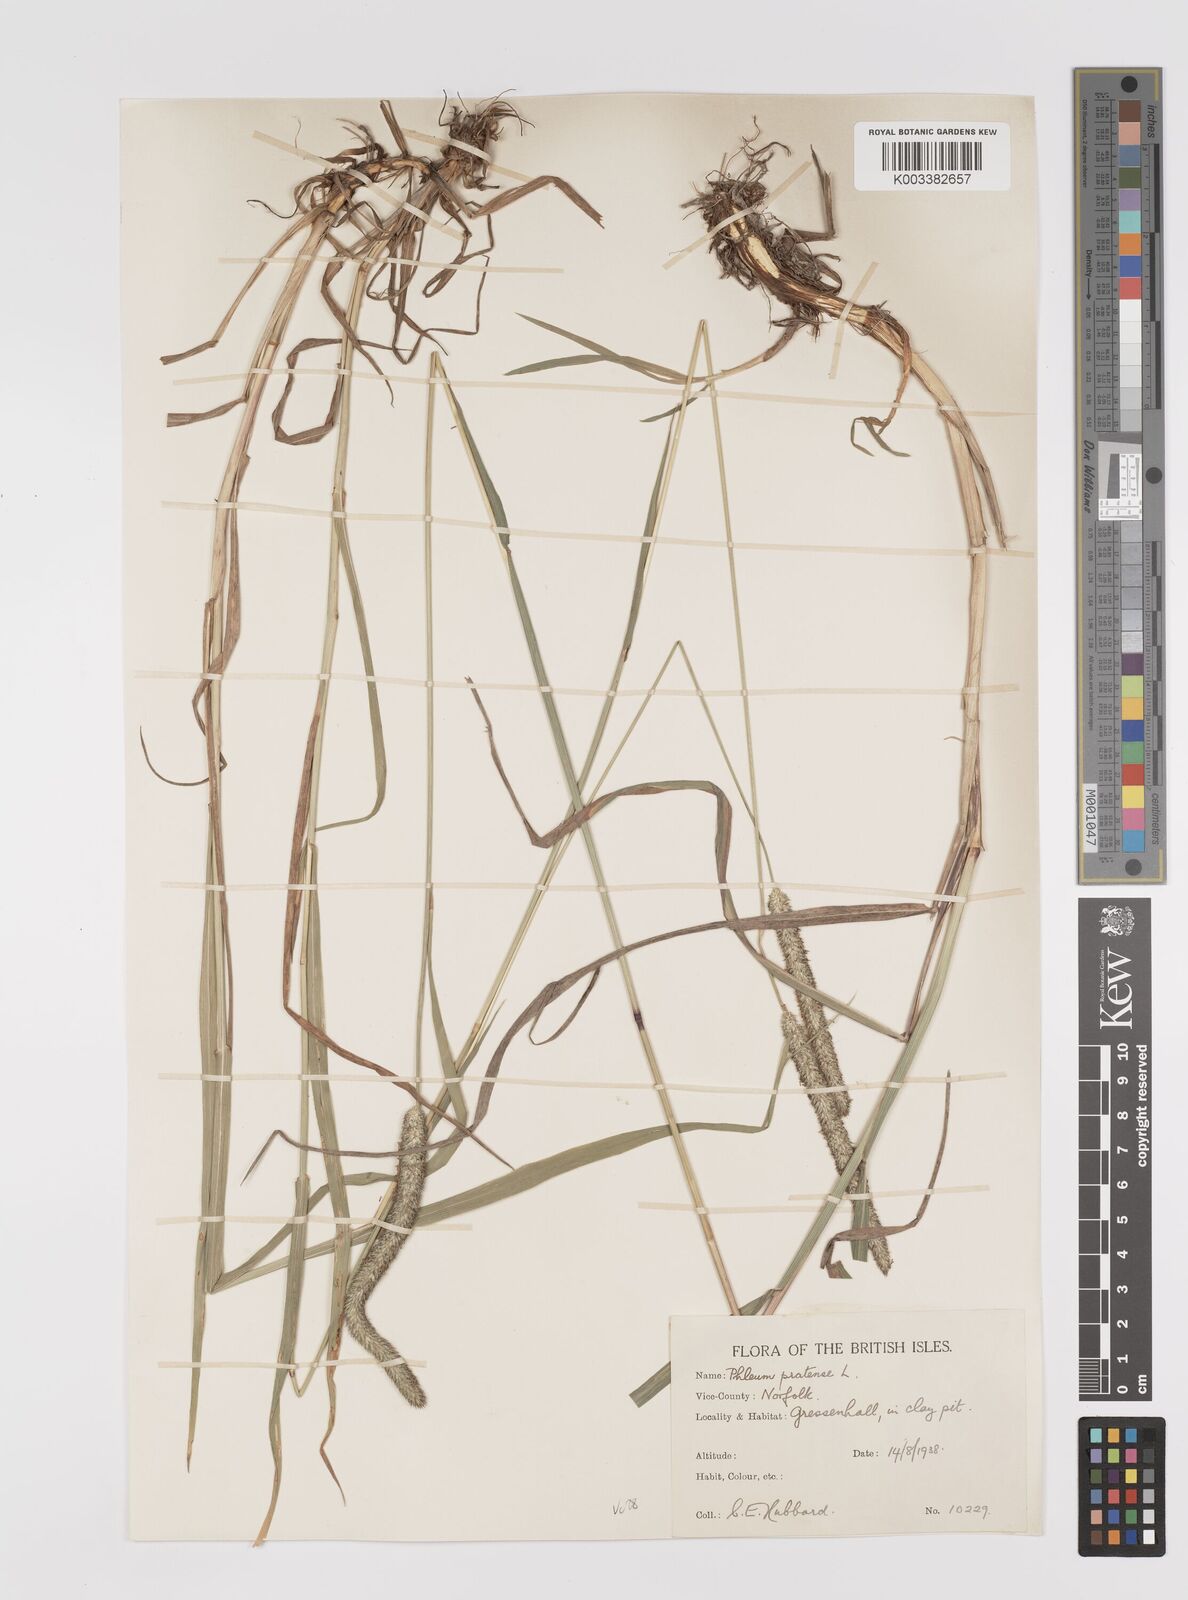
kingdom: Plantae
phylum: Tracheophyta
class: Liliopsida
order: Poales
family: Poaceae
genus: Phleum
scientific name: Phleum pratense
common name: Timothy grass
